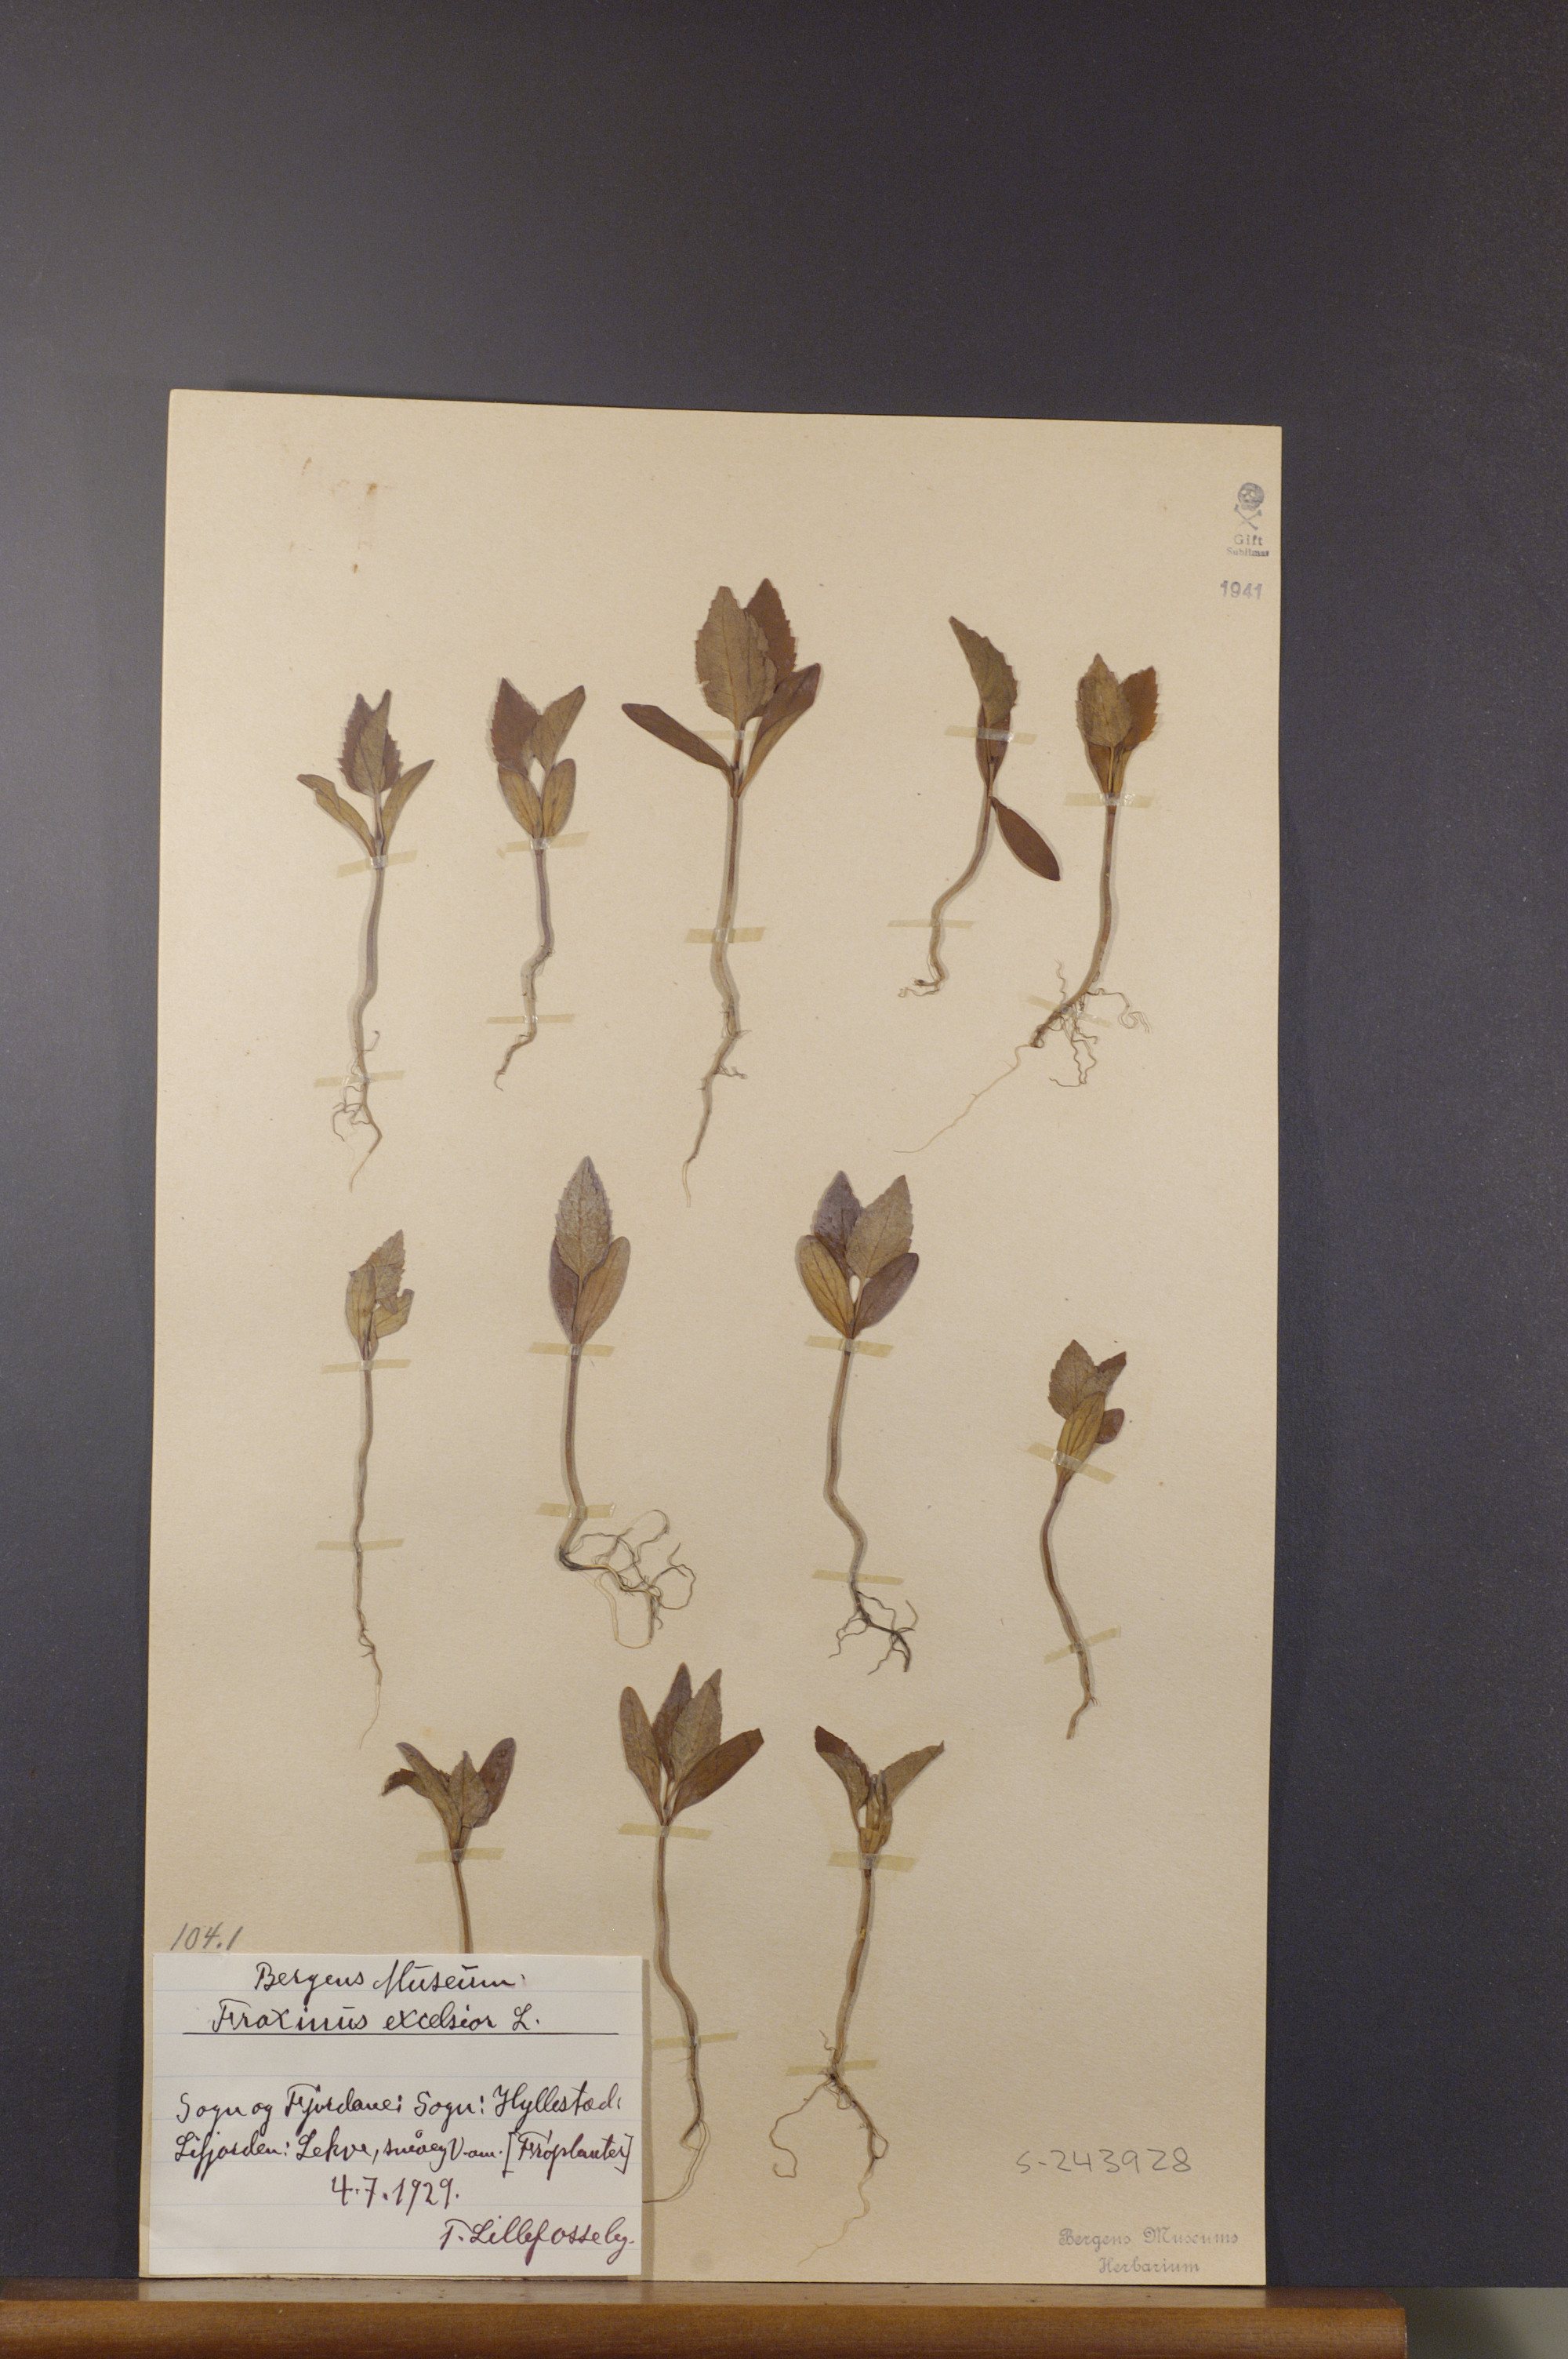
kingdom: Plantae
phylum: Tracheophyta
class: Magnoliopsida
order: Lamiales
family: Oleaceae
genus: Fraxinus
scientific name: Fraxinus excelsior
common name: European ash
